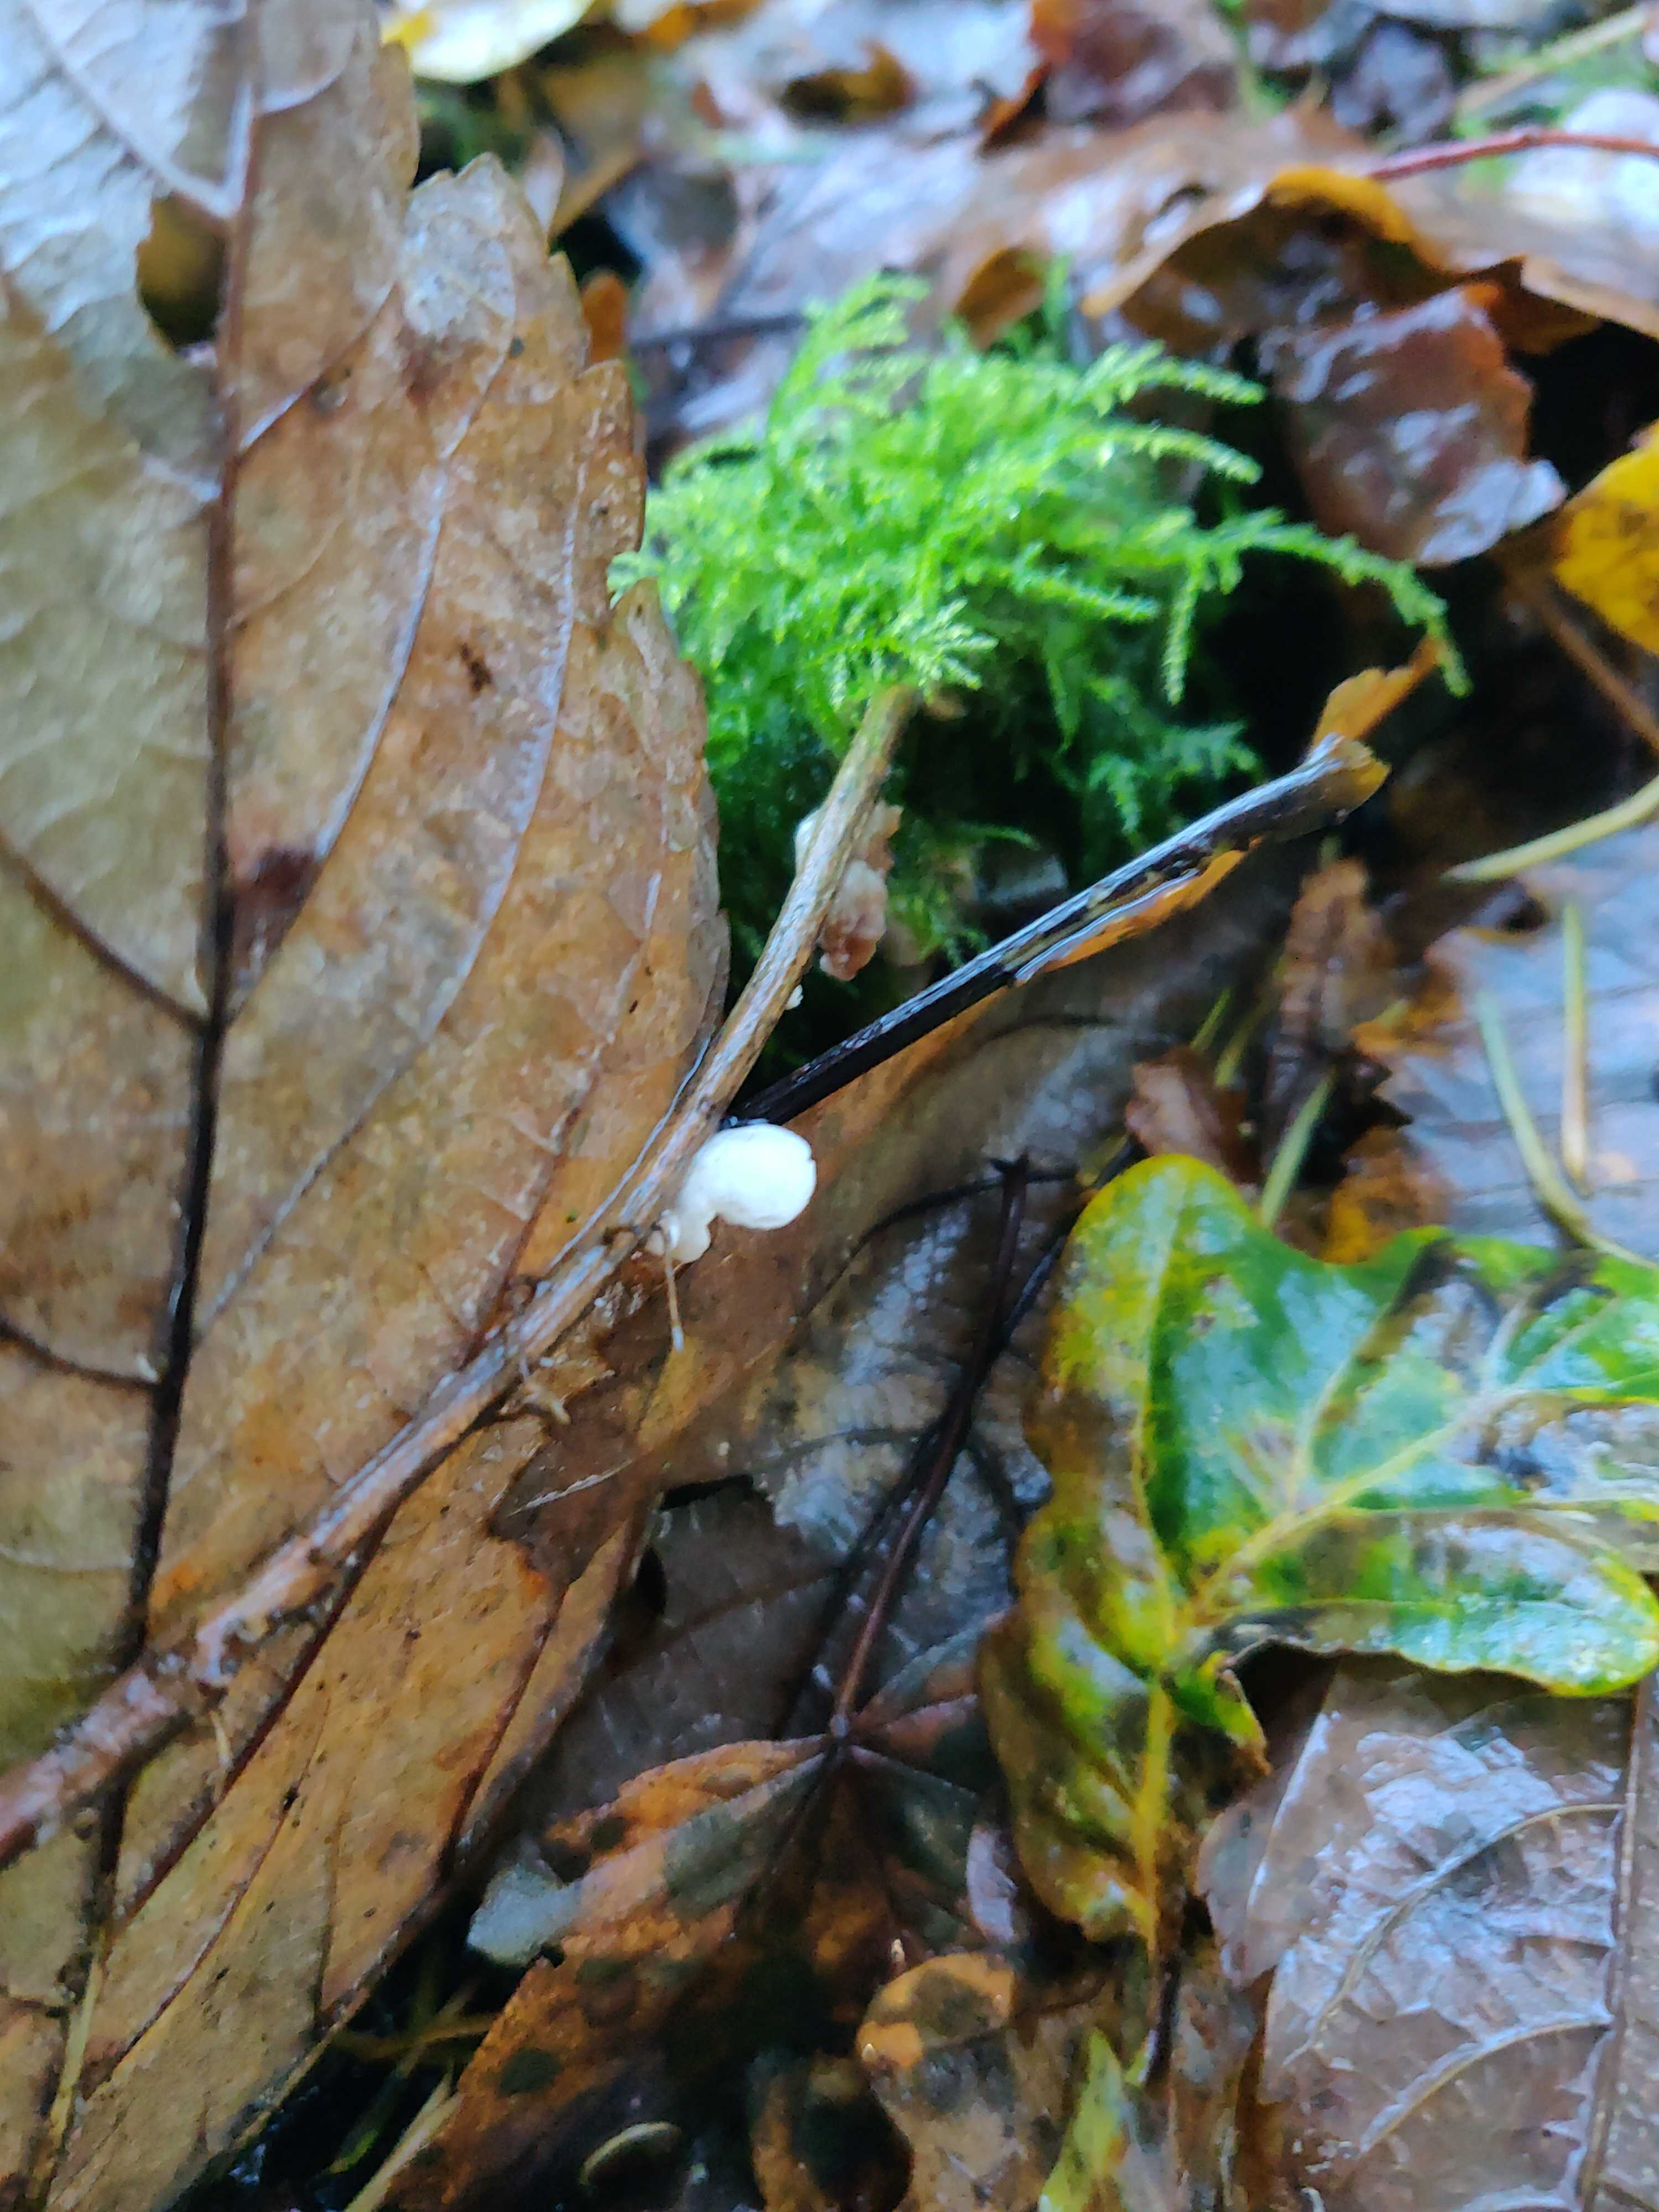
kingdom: Fungi
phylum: Basidiomycota
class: Agaricomycetes
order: Agaricales
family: Crepidotaceae
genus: Crepidotus
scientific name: Crepidotus
